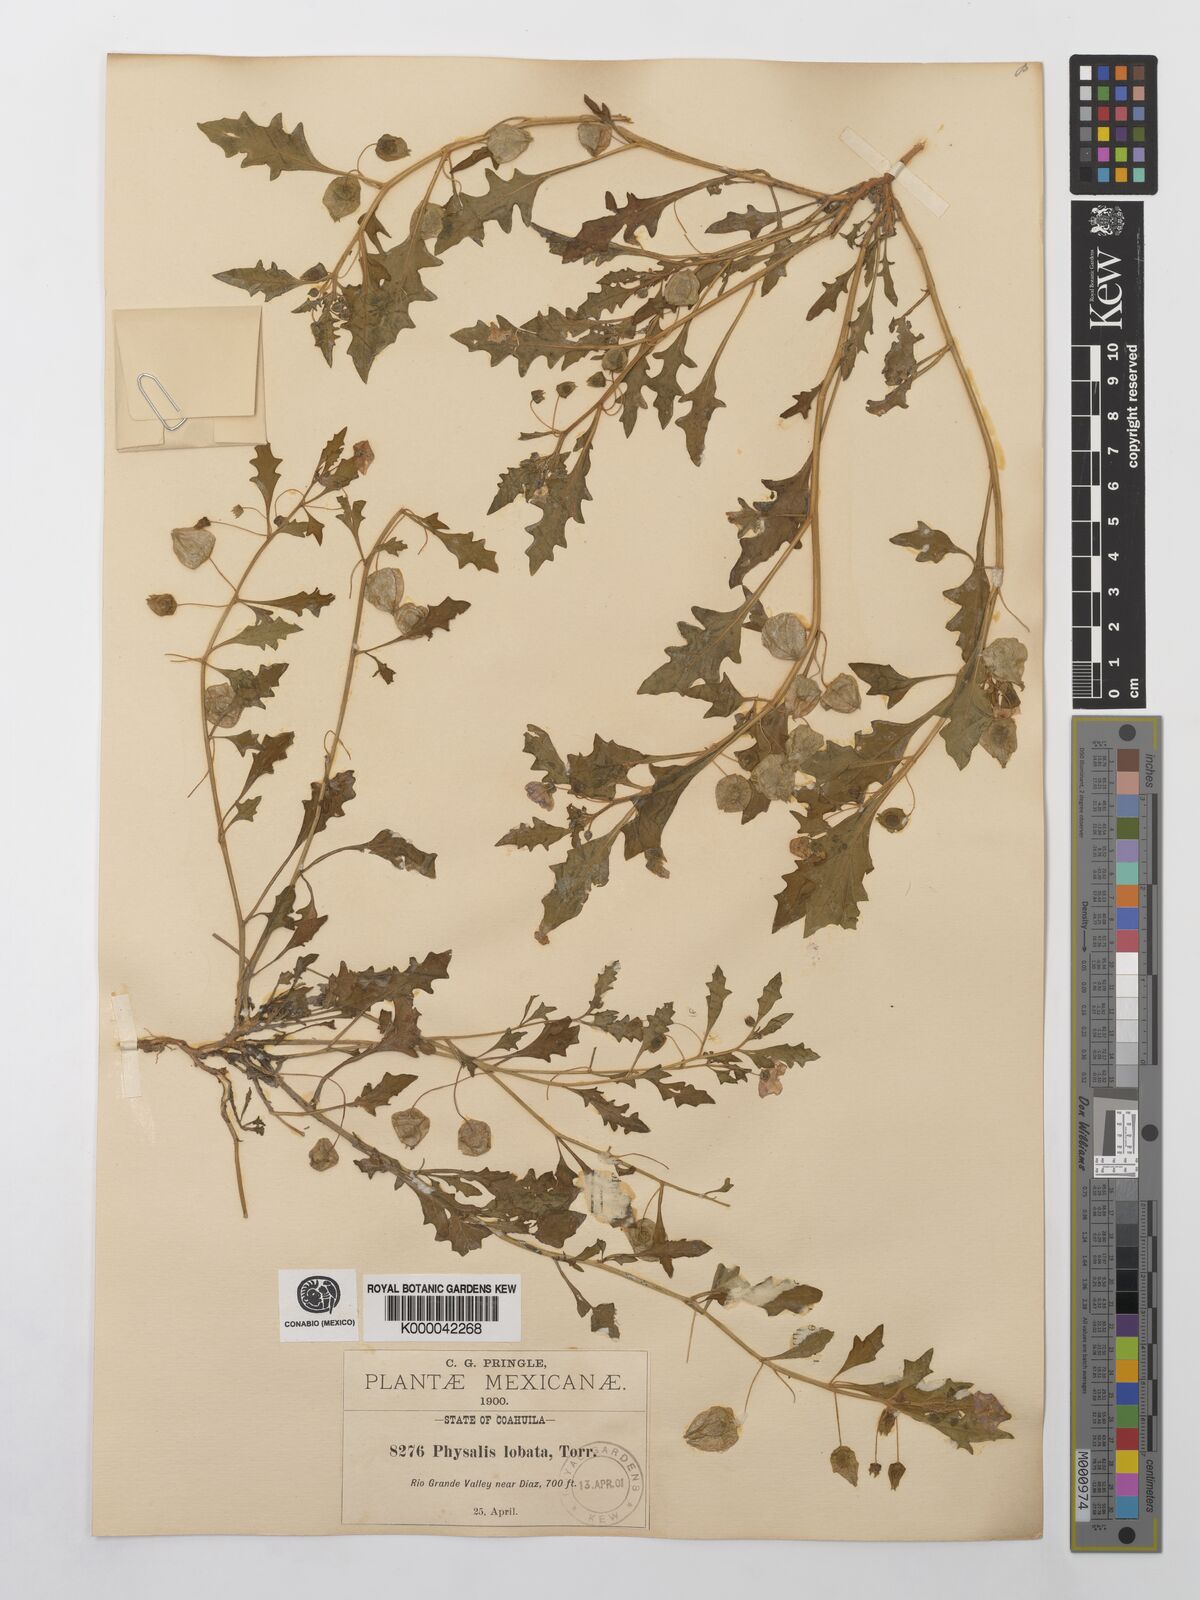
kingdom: Plantae
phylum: Tracheophyta
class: Magnoliopsida
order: Solanales
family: Solanaceae
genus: Quincula
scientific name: Quincula lobata
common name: Purple-ground-cherry
